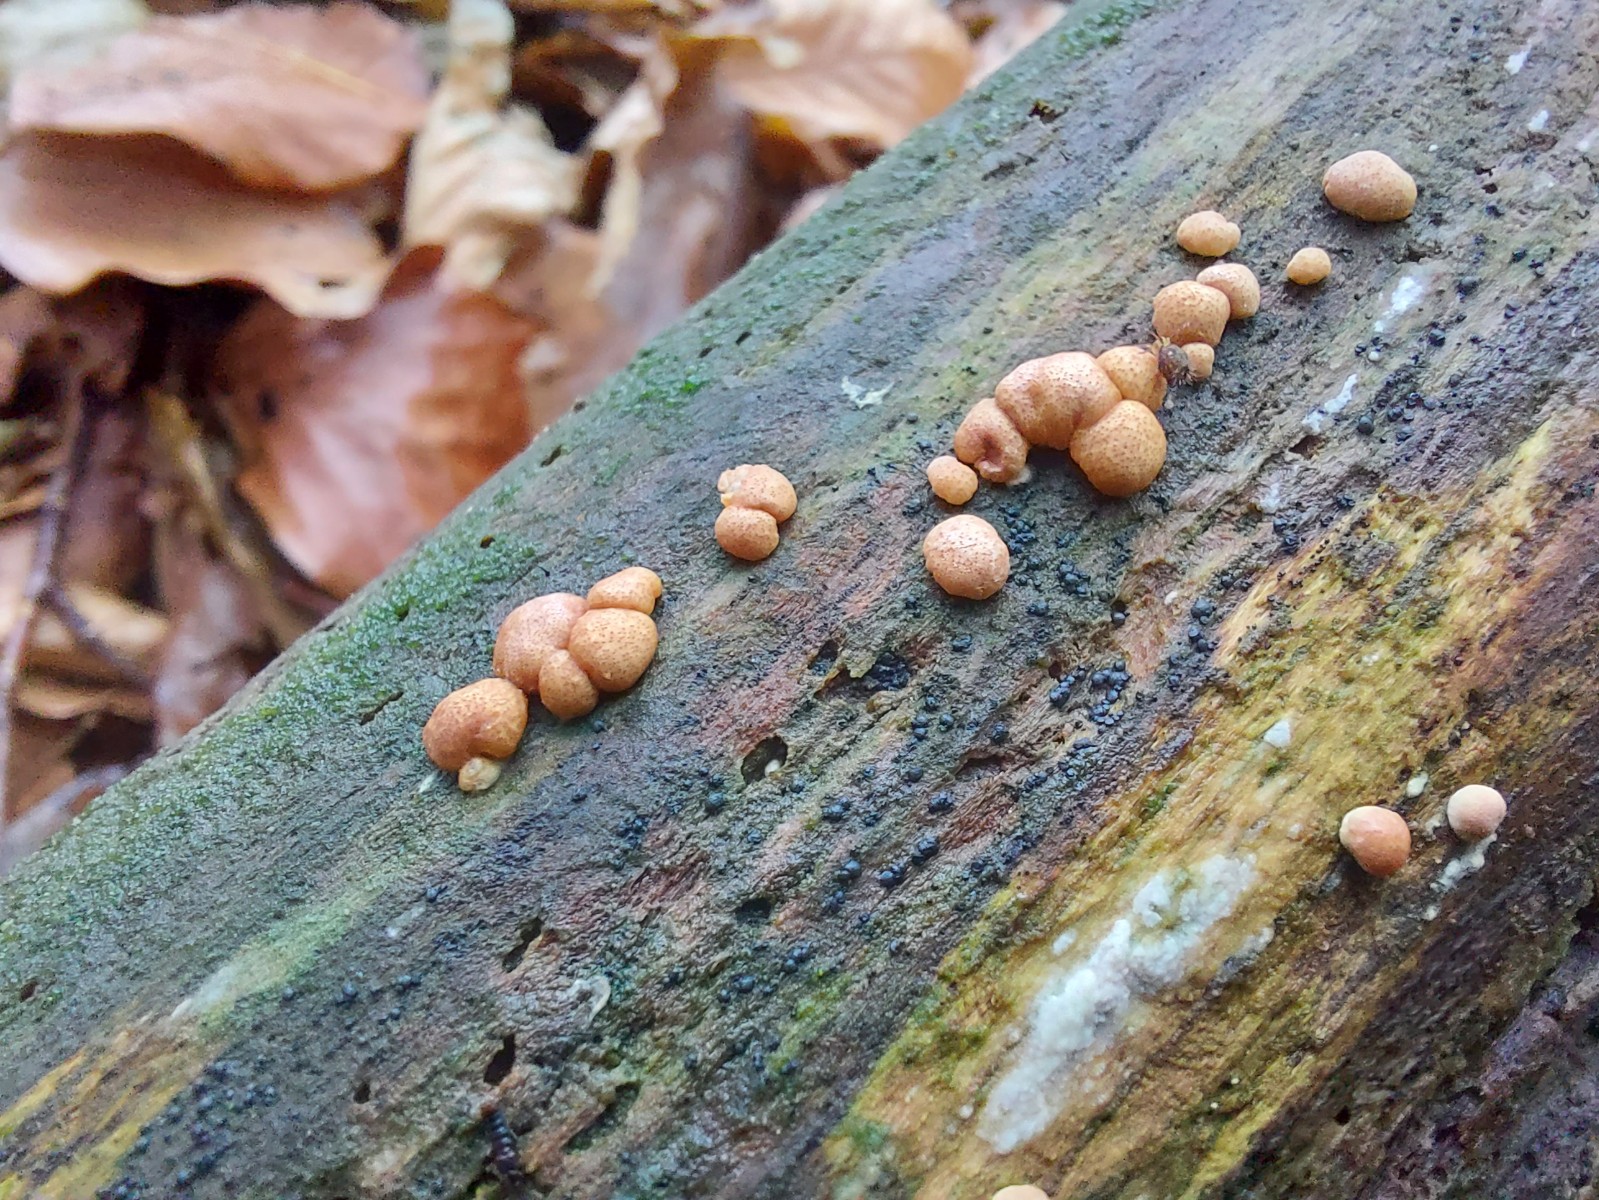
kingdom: Fungi
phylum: Ascomycota
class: Sordariomycetes
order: Hypocreales
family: Hypocreaceae
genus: Trichoderma
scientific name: Trichoderma europaeum
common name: rosabrun kødkerne
